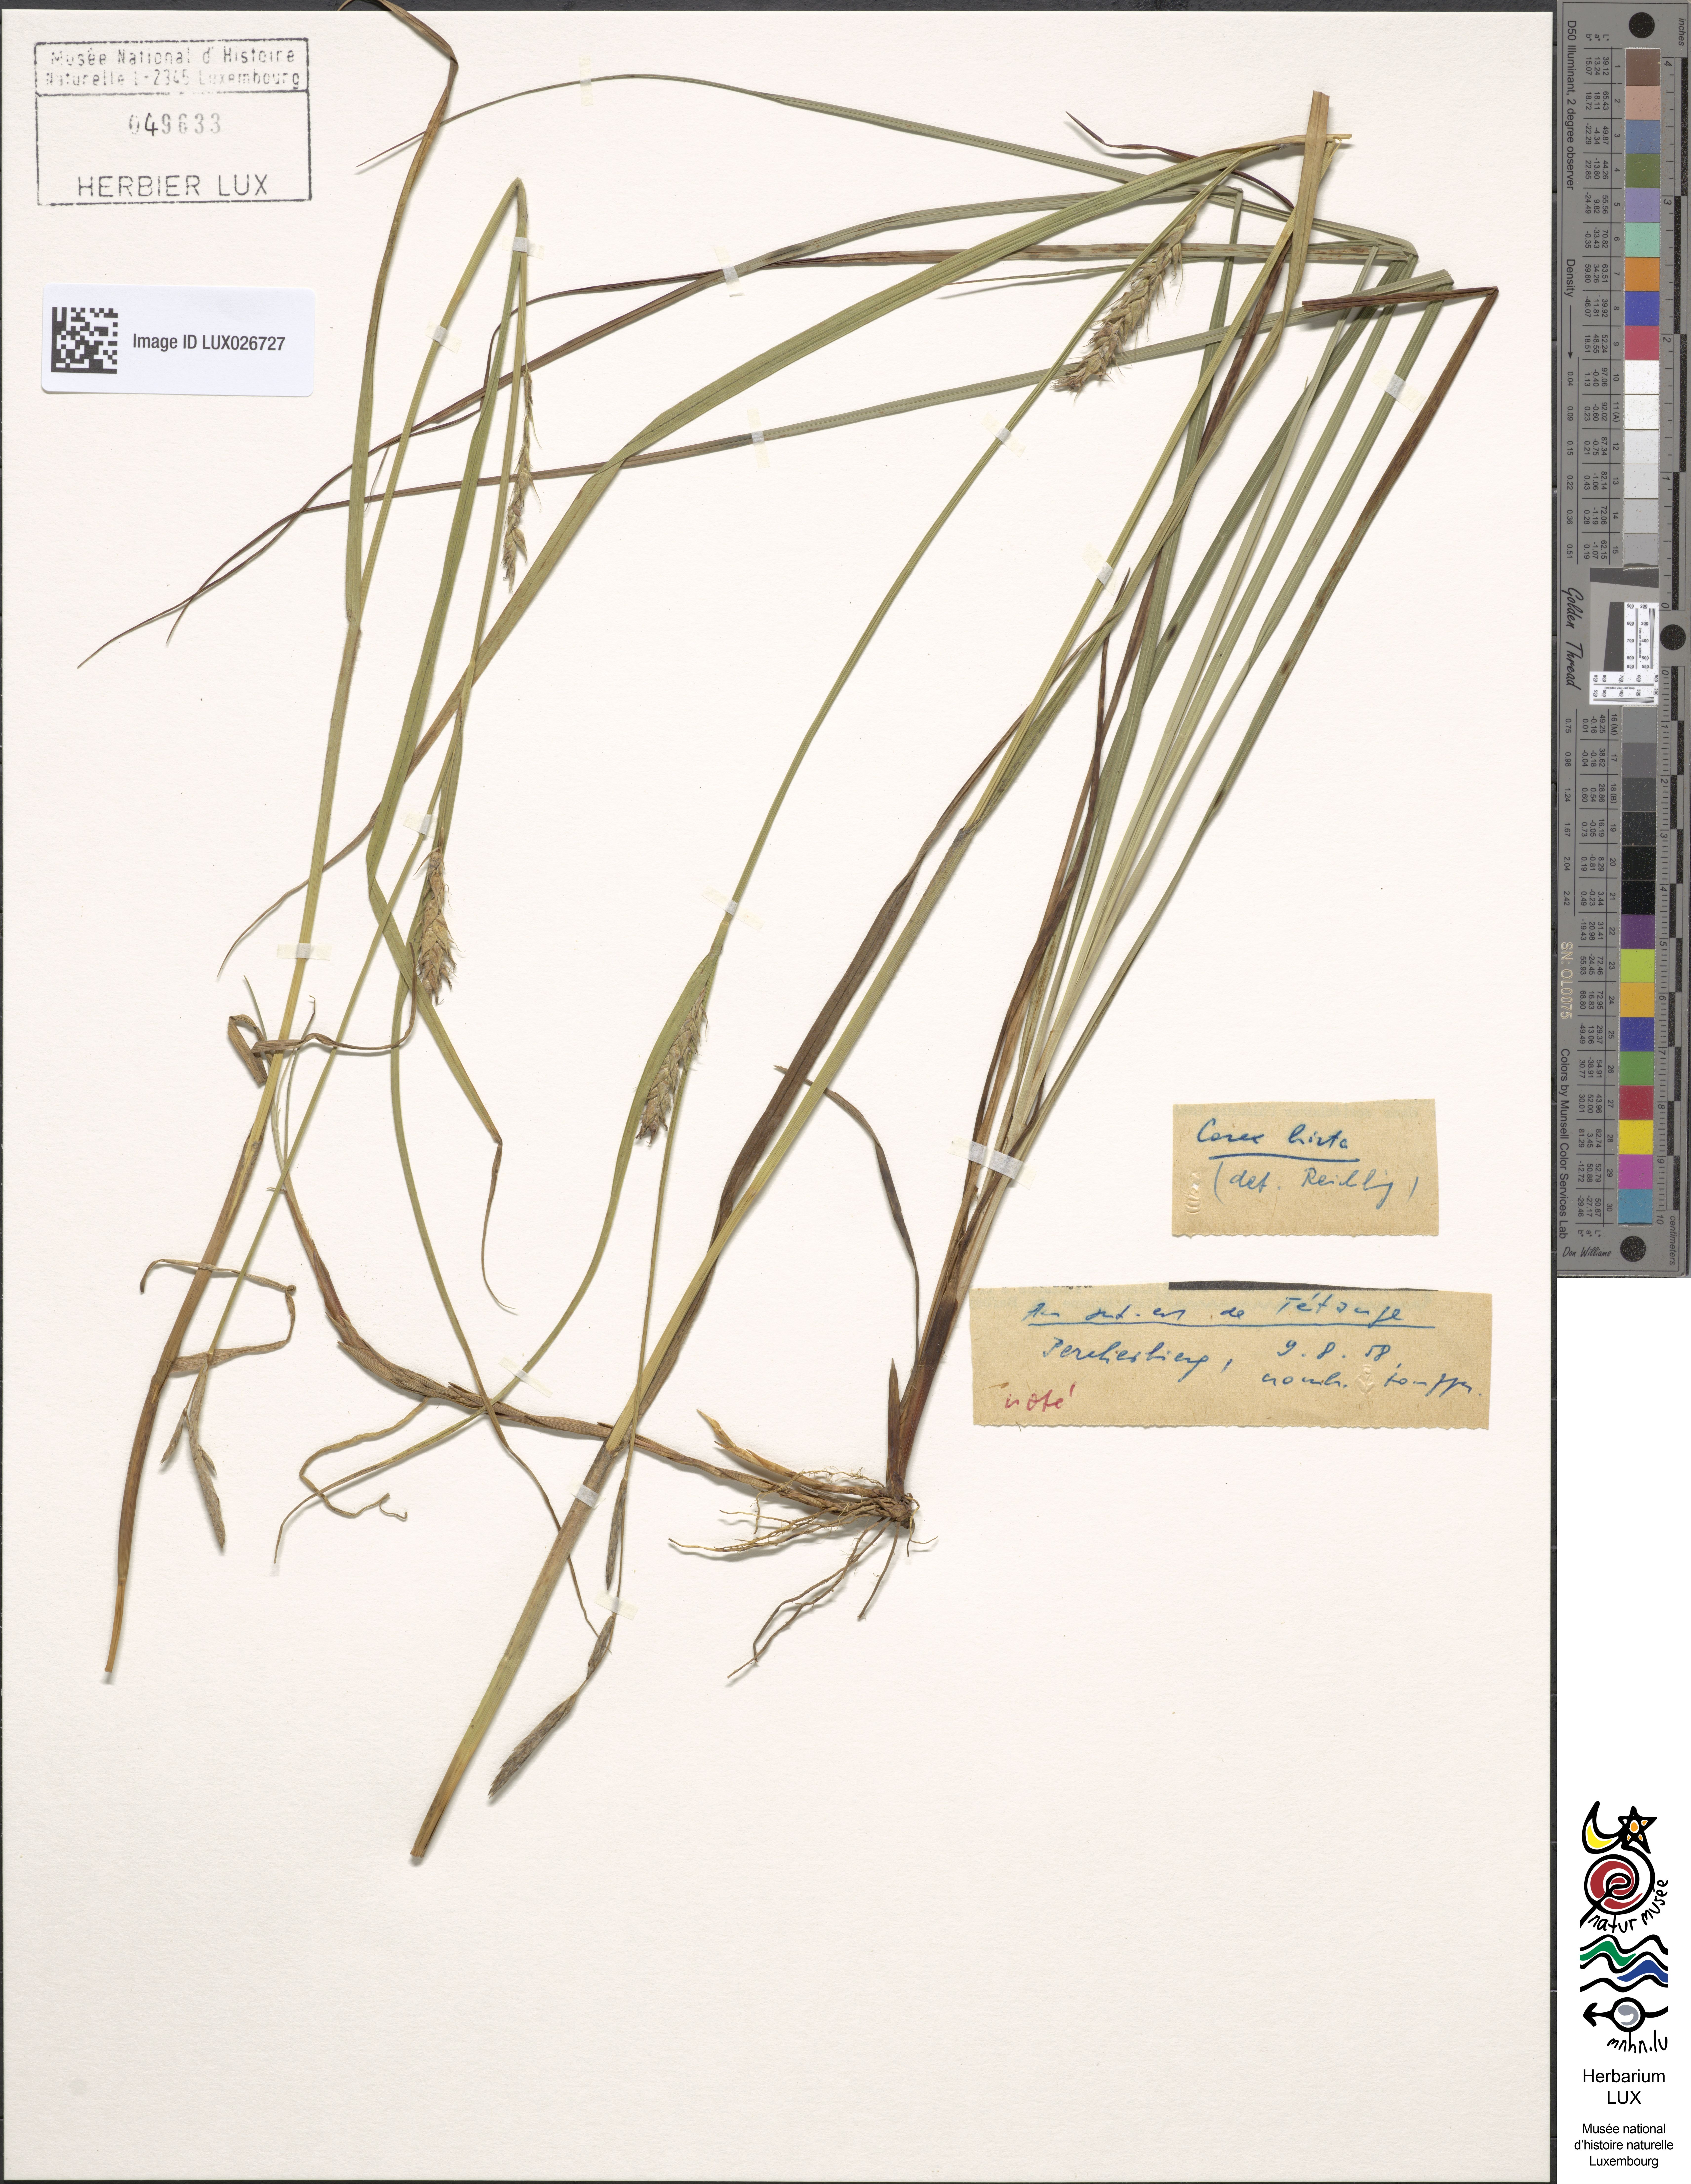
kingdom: Plantae
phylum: Tracheophyta
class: Liliopsida
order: Poales
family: Cyperaceae
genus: Carex
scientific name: Carex hirta
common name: Hairy sedge
